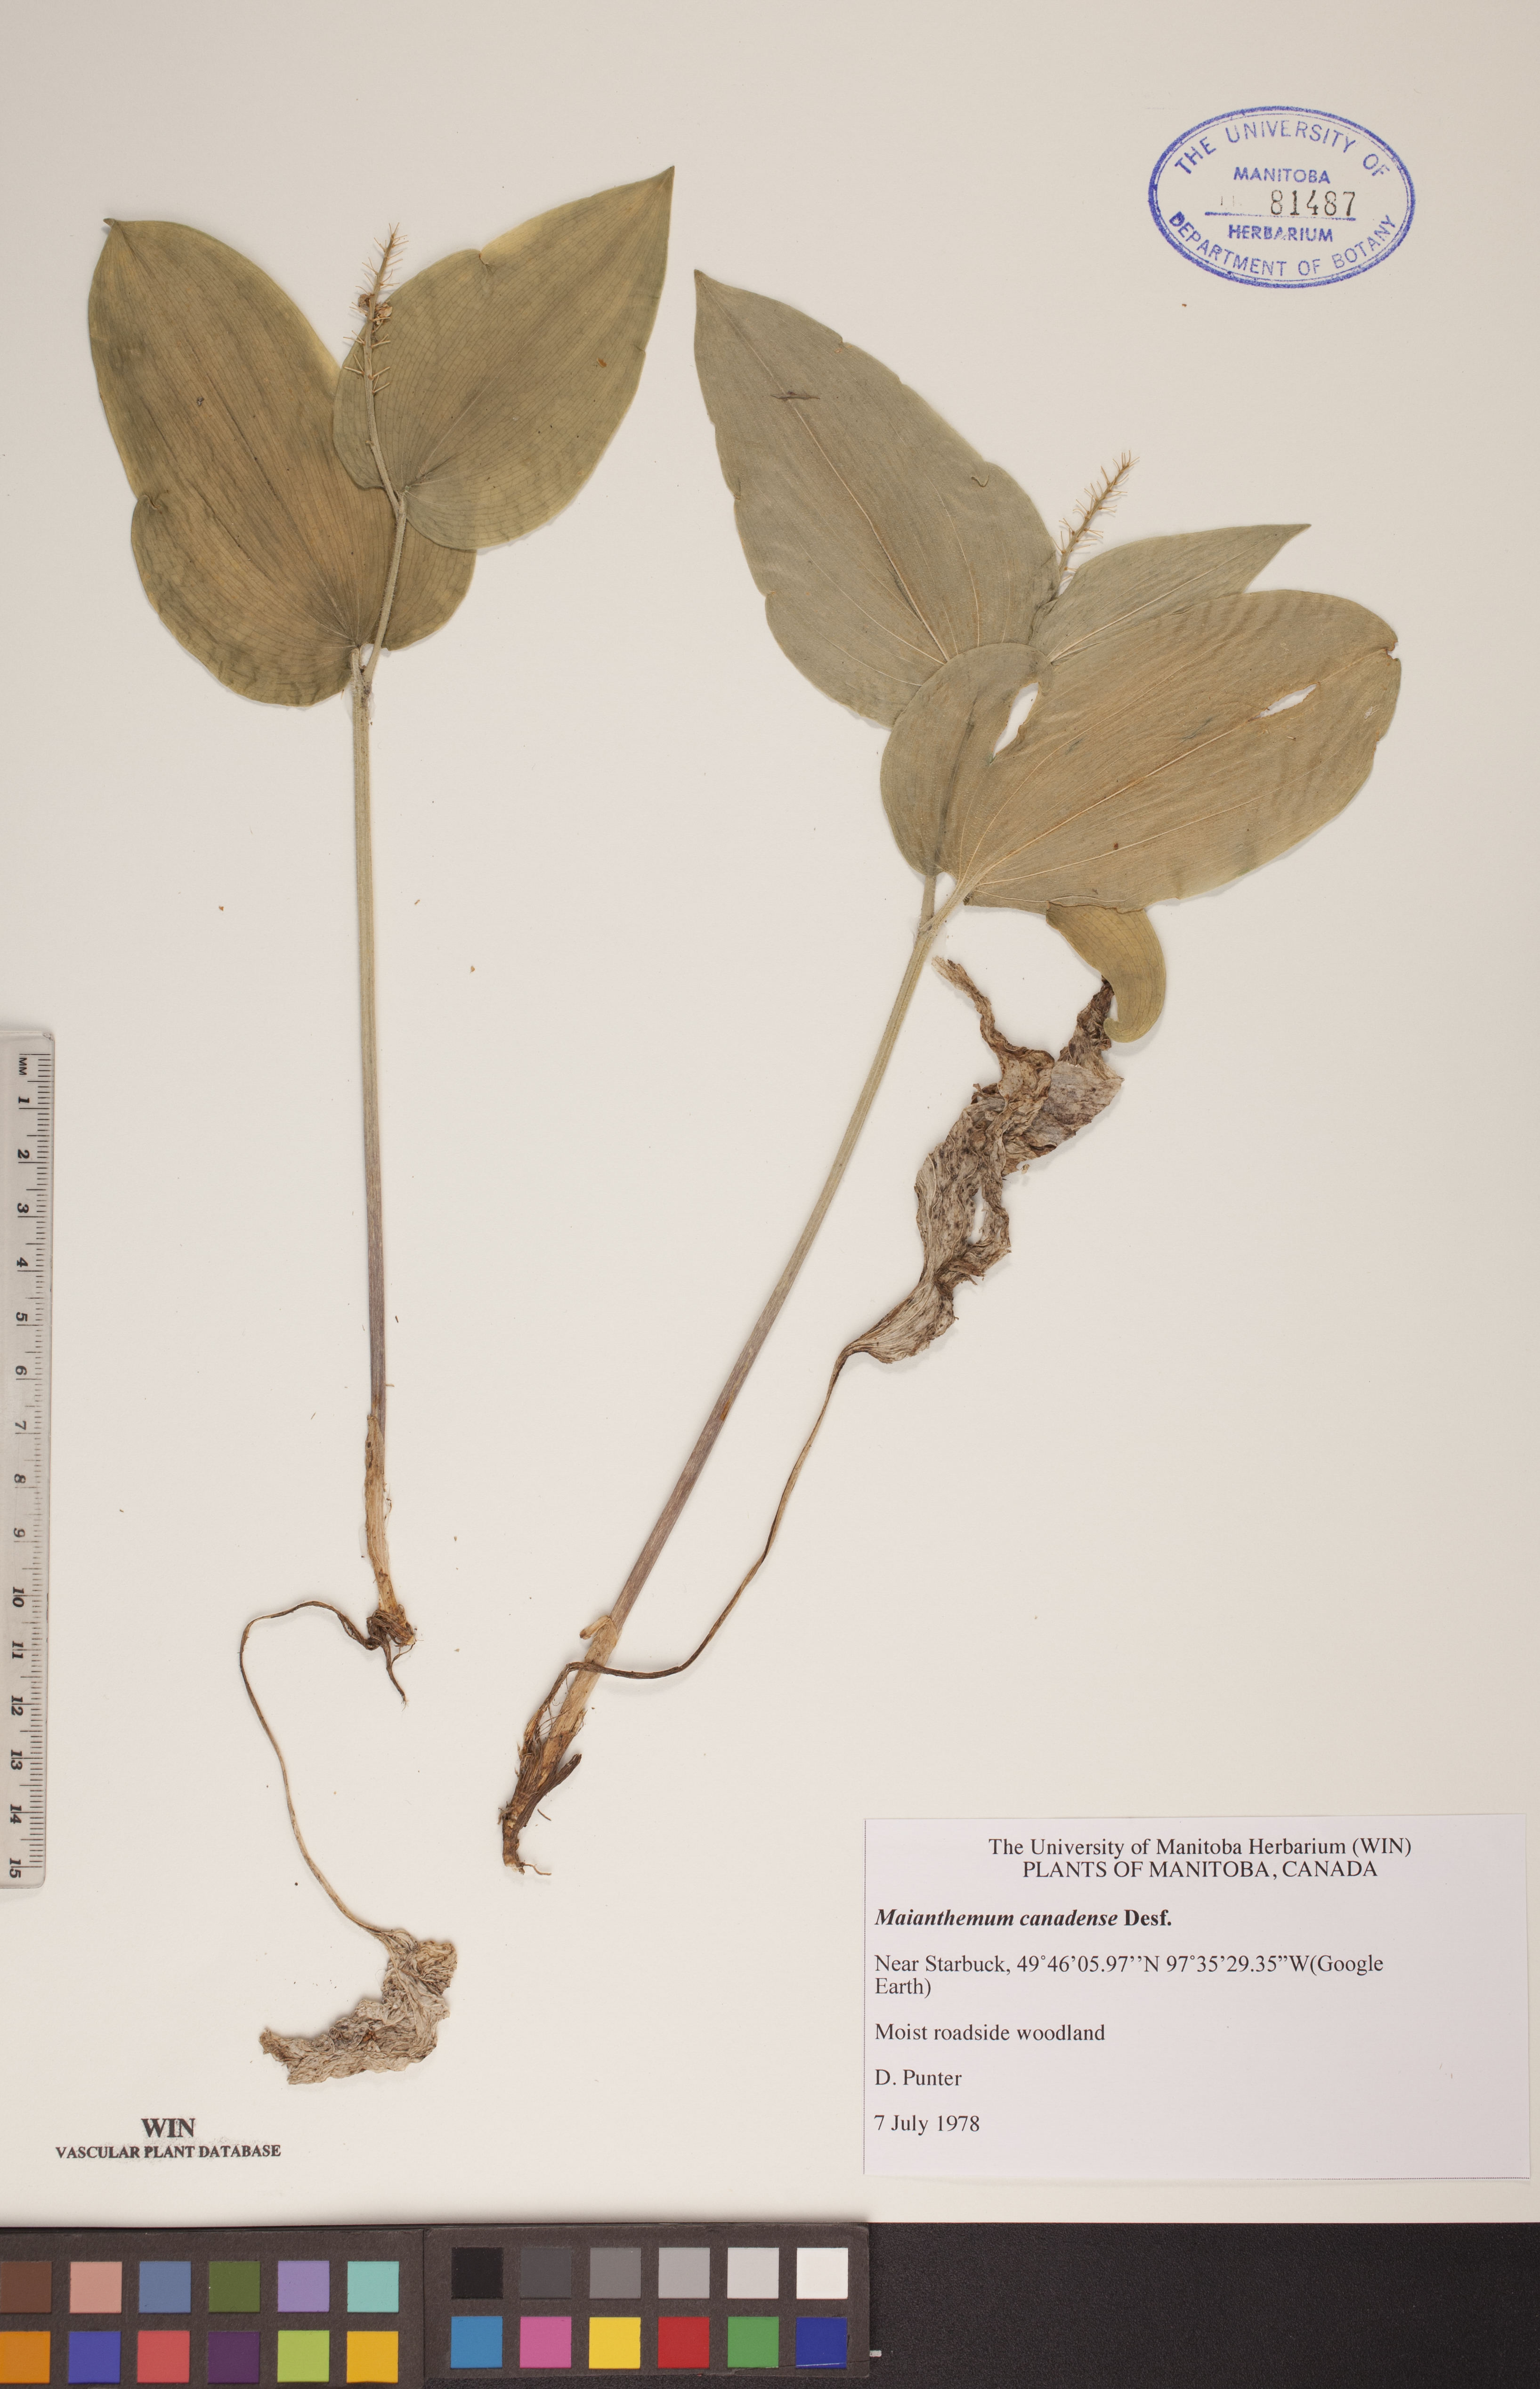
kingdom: Plantae
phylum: Tracheophyta
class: Liliopsida
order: Asparagales
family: Asparagaceae
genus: Maianthemum
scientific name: Maianthemum canadense
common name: False lily-of-the-valley
